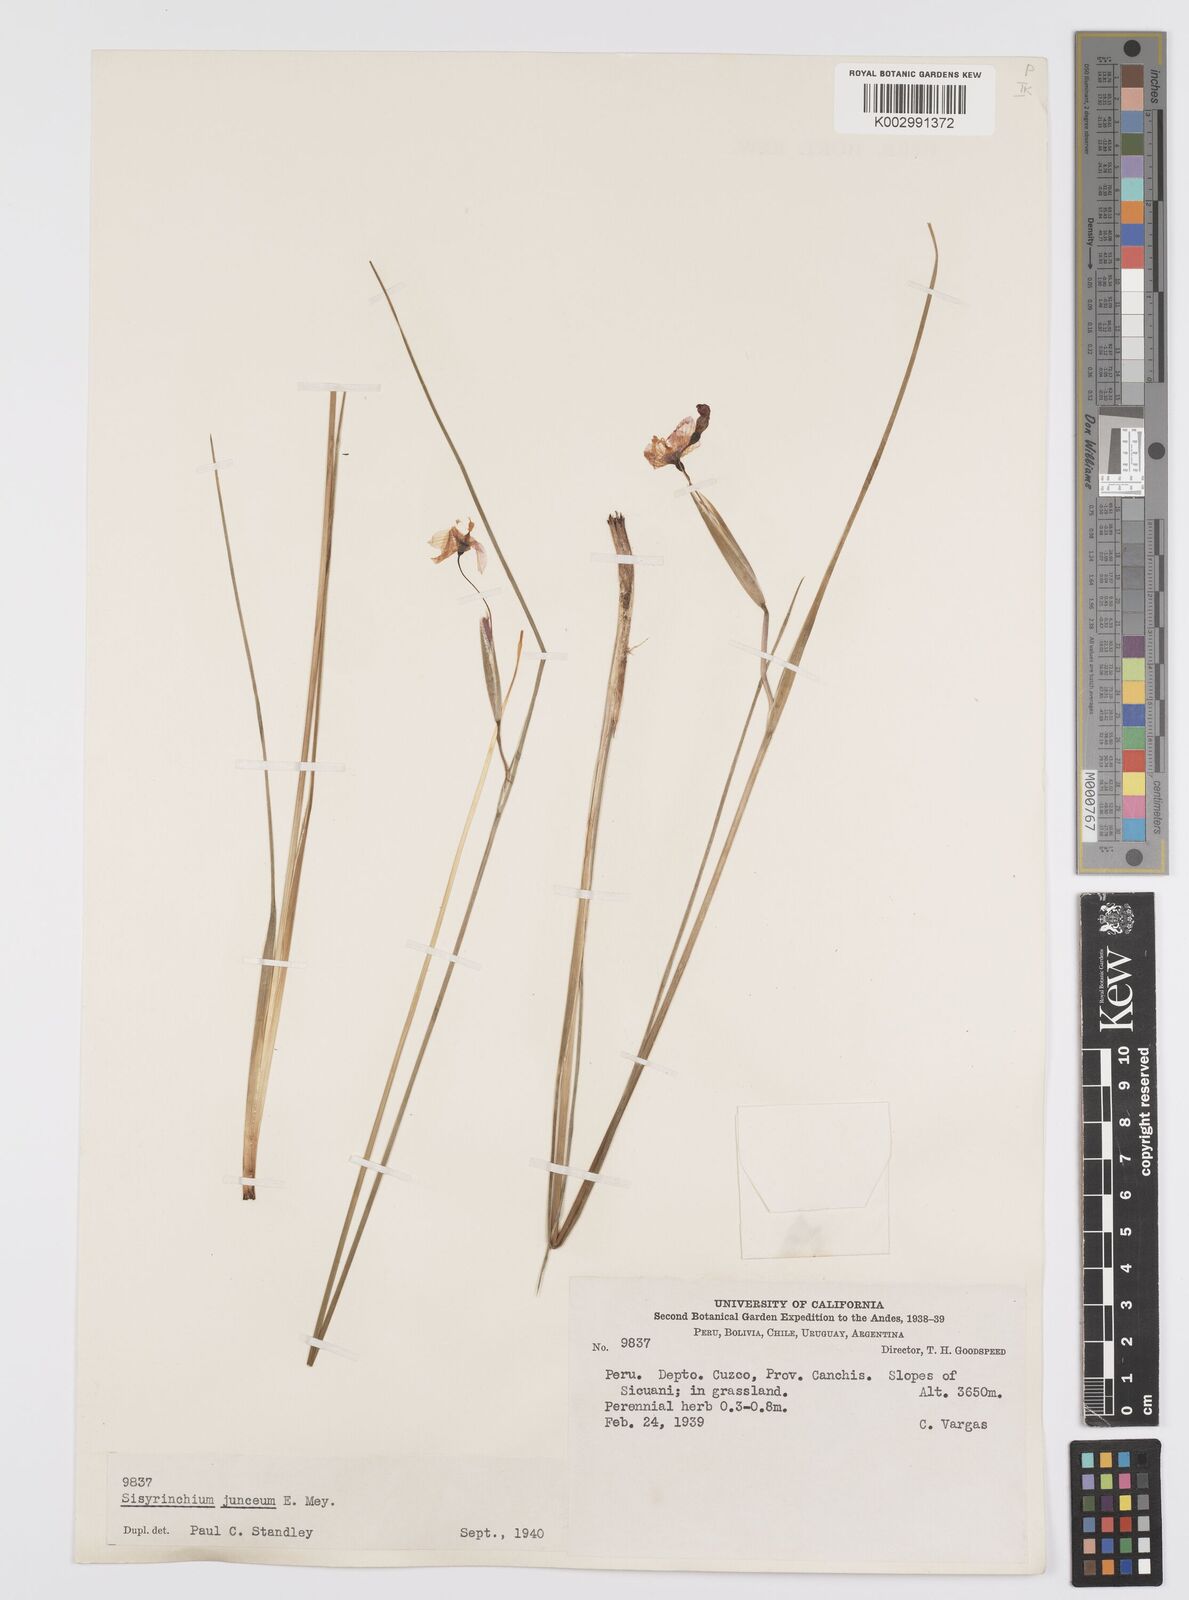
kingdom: Plantae
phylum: Tracheophyta
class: Liliopsida
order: Asparagales
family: Iridaceae
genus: Olsynium
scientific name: Olsynium junceum
